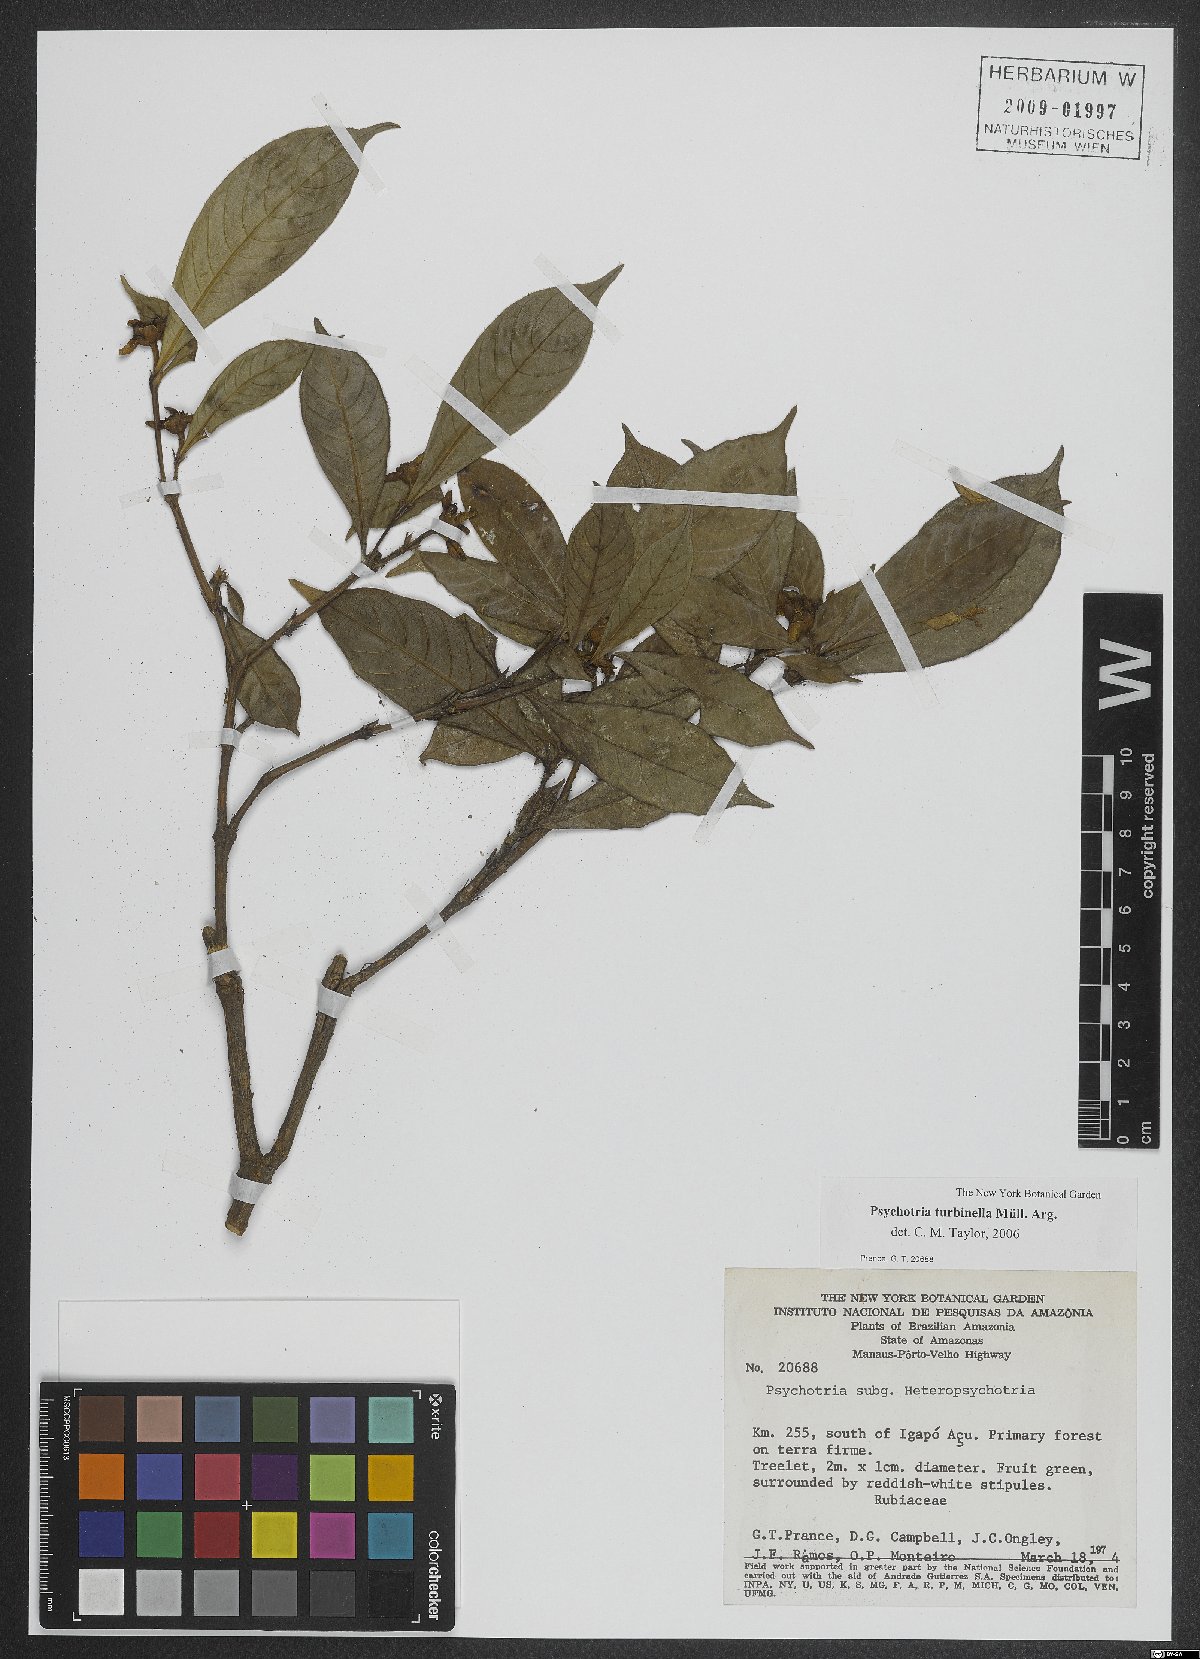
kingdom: Plantae
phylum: Tracheophyta
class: Magnoliopsida
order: Gentianales
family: Rubiaceae
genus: Palicourea
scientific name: Palicourea turbinella
